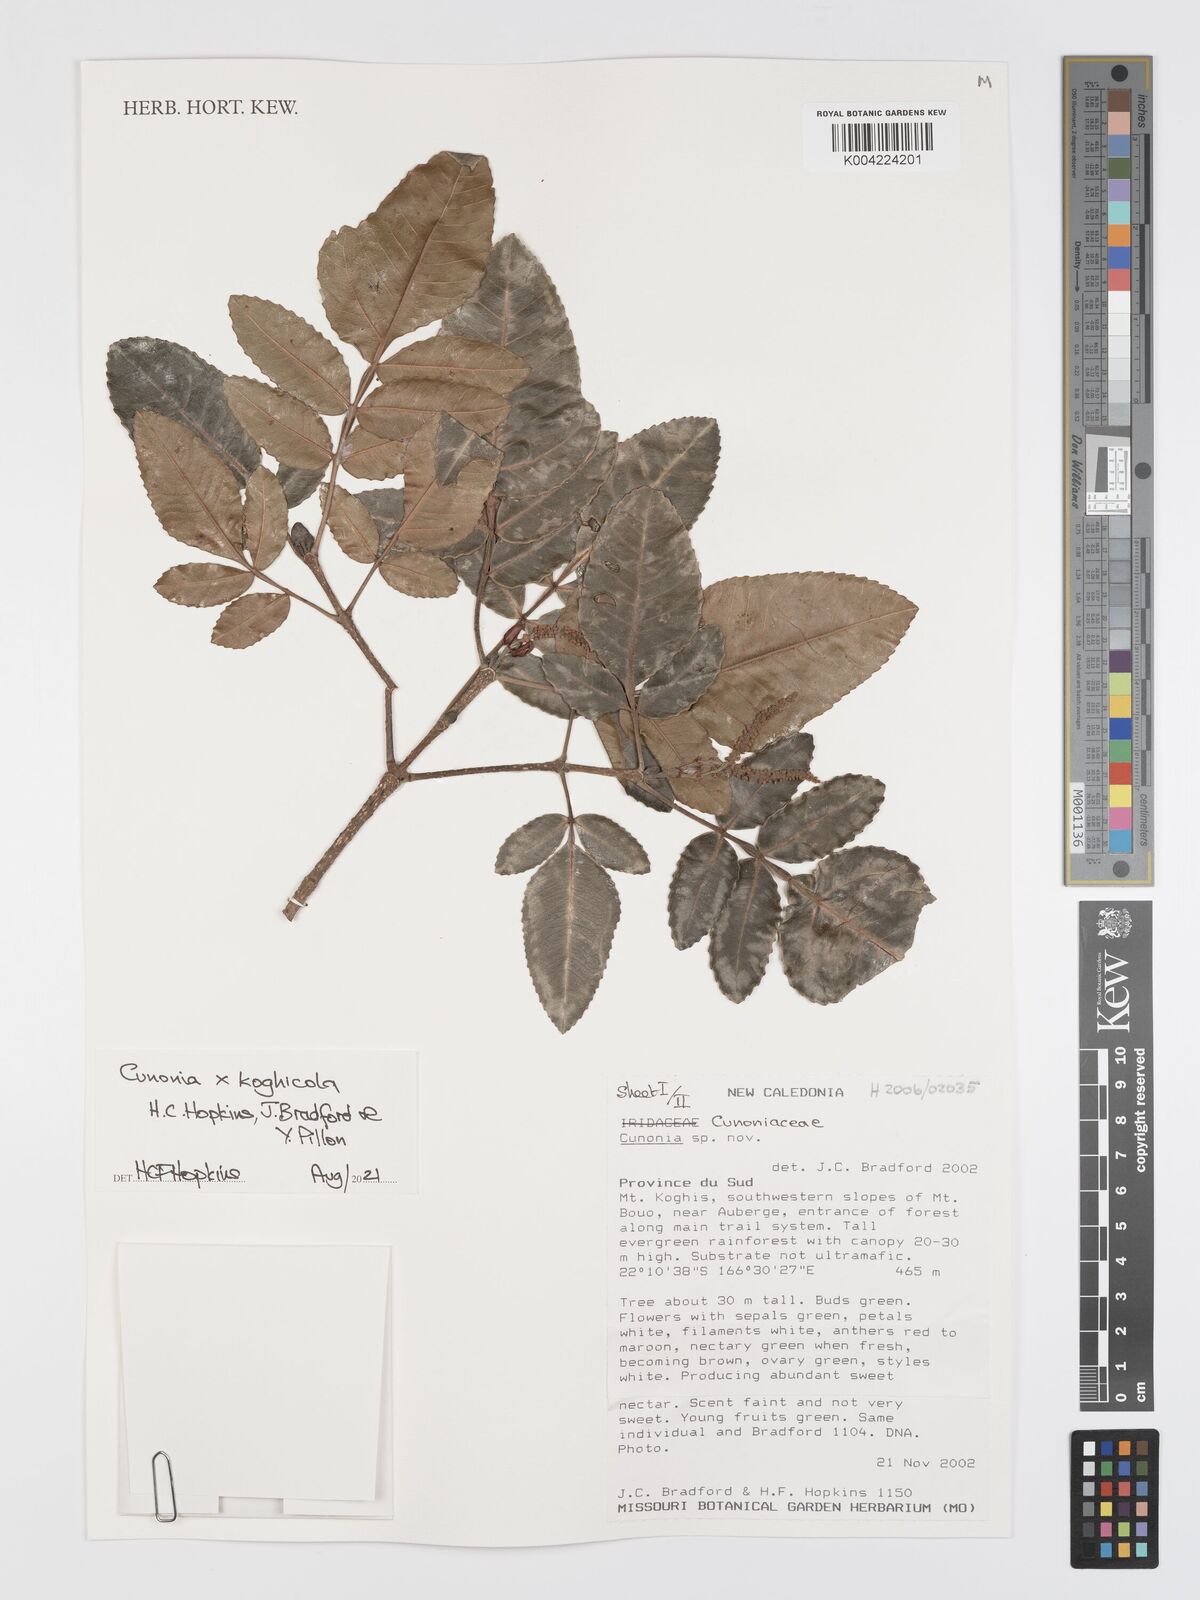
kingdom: Plantae
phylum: Tracheophyta
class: Magnoliopsida
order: Oxalidales
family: Cunoniaceae
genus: Cunonia
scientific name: Cunonia koghicola
